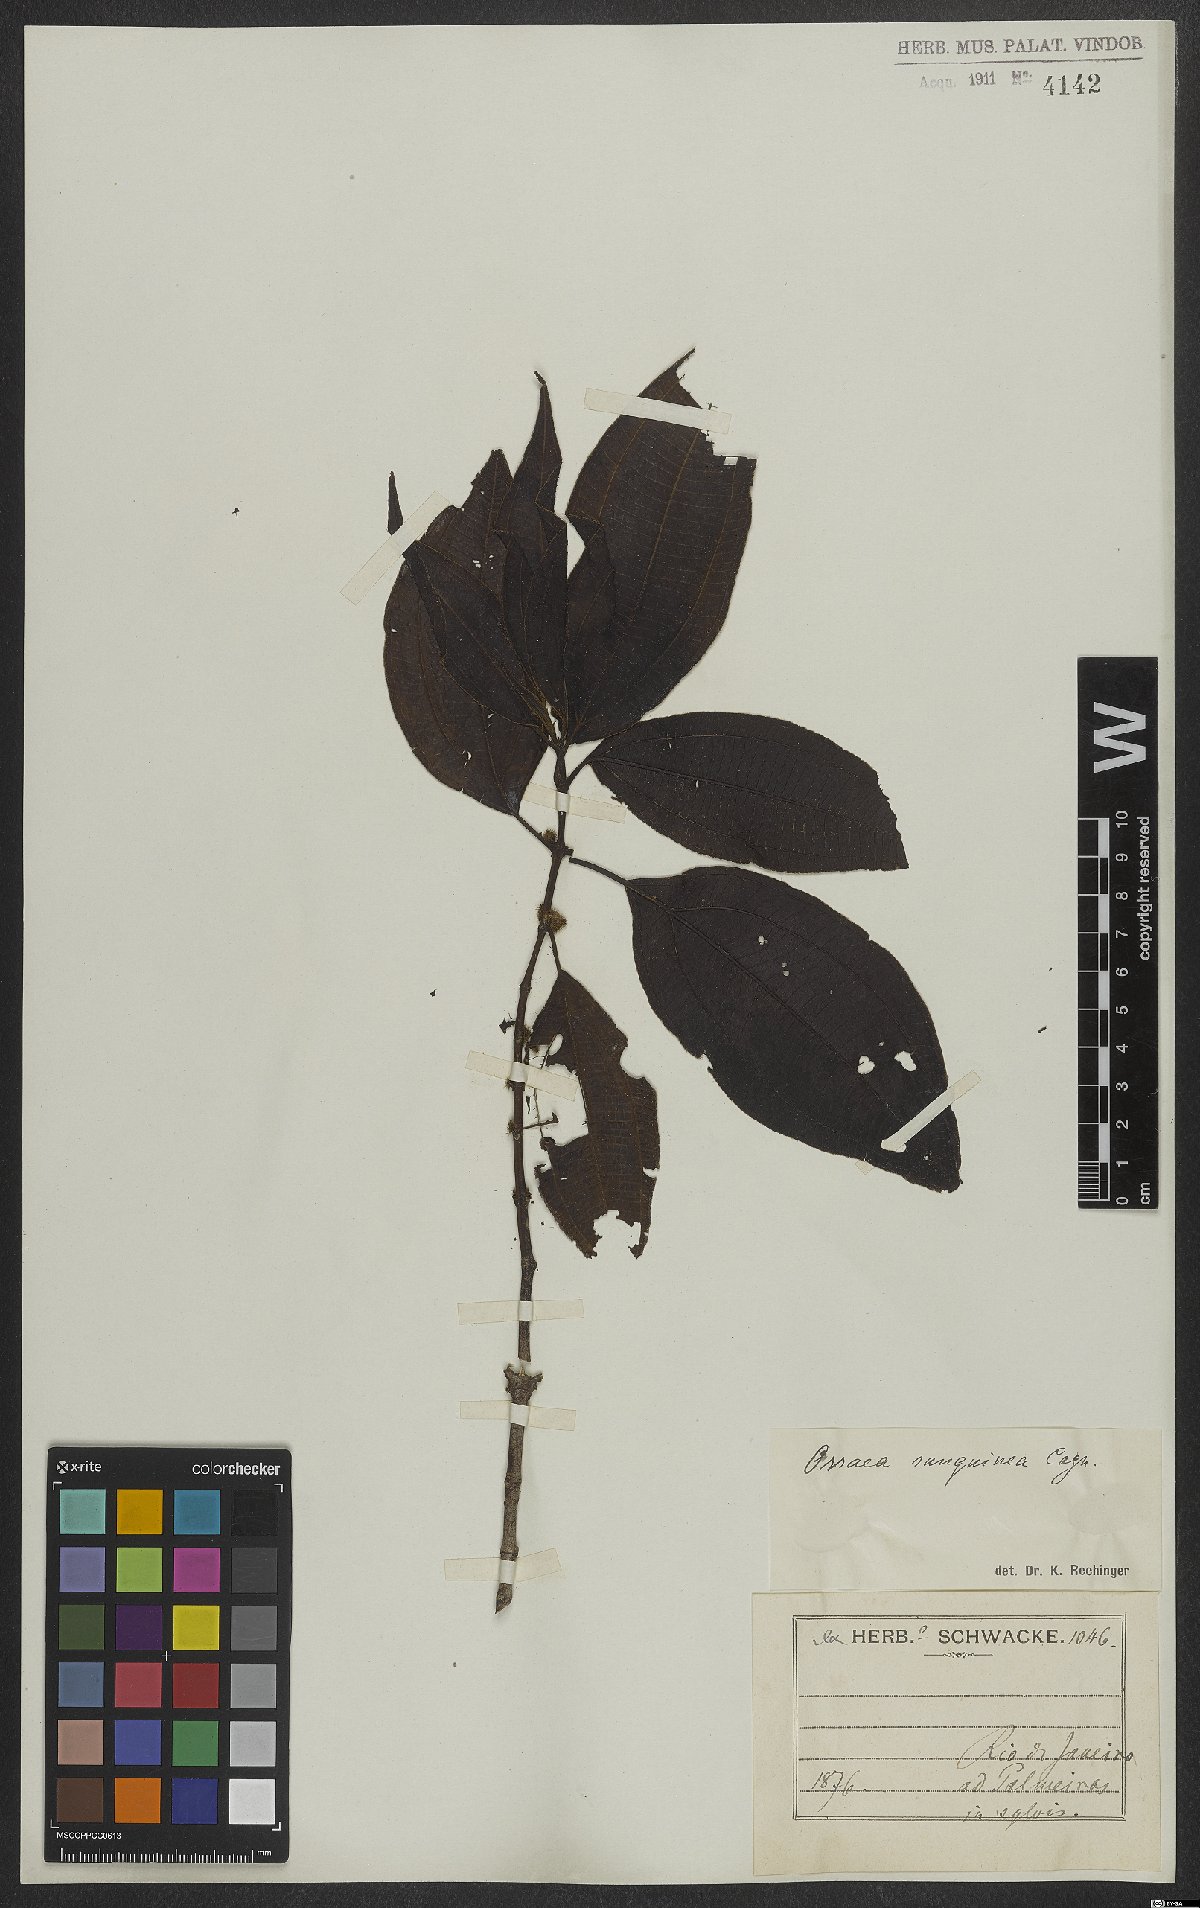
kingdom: Plantae
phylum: Tracheophyta
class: Magnoliopsida
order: Myrtales
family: Melastomataceae
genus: Miconia
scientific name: Miconia secunsanguinea
